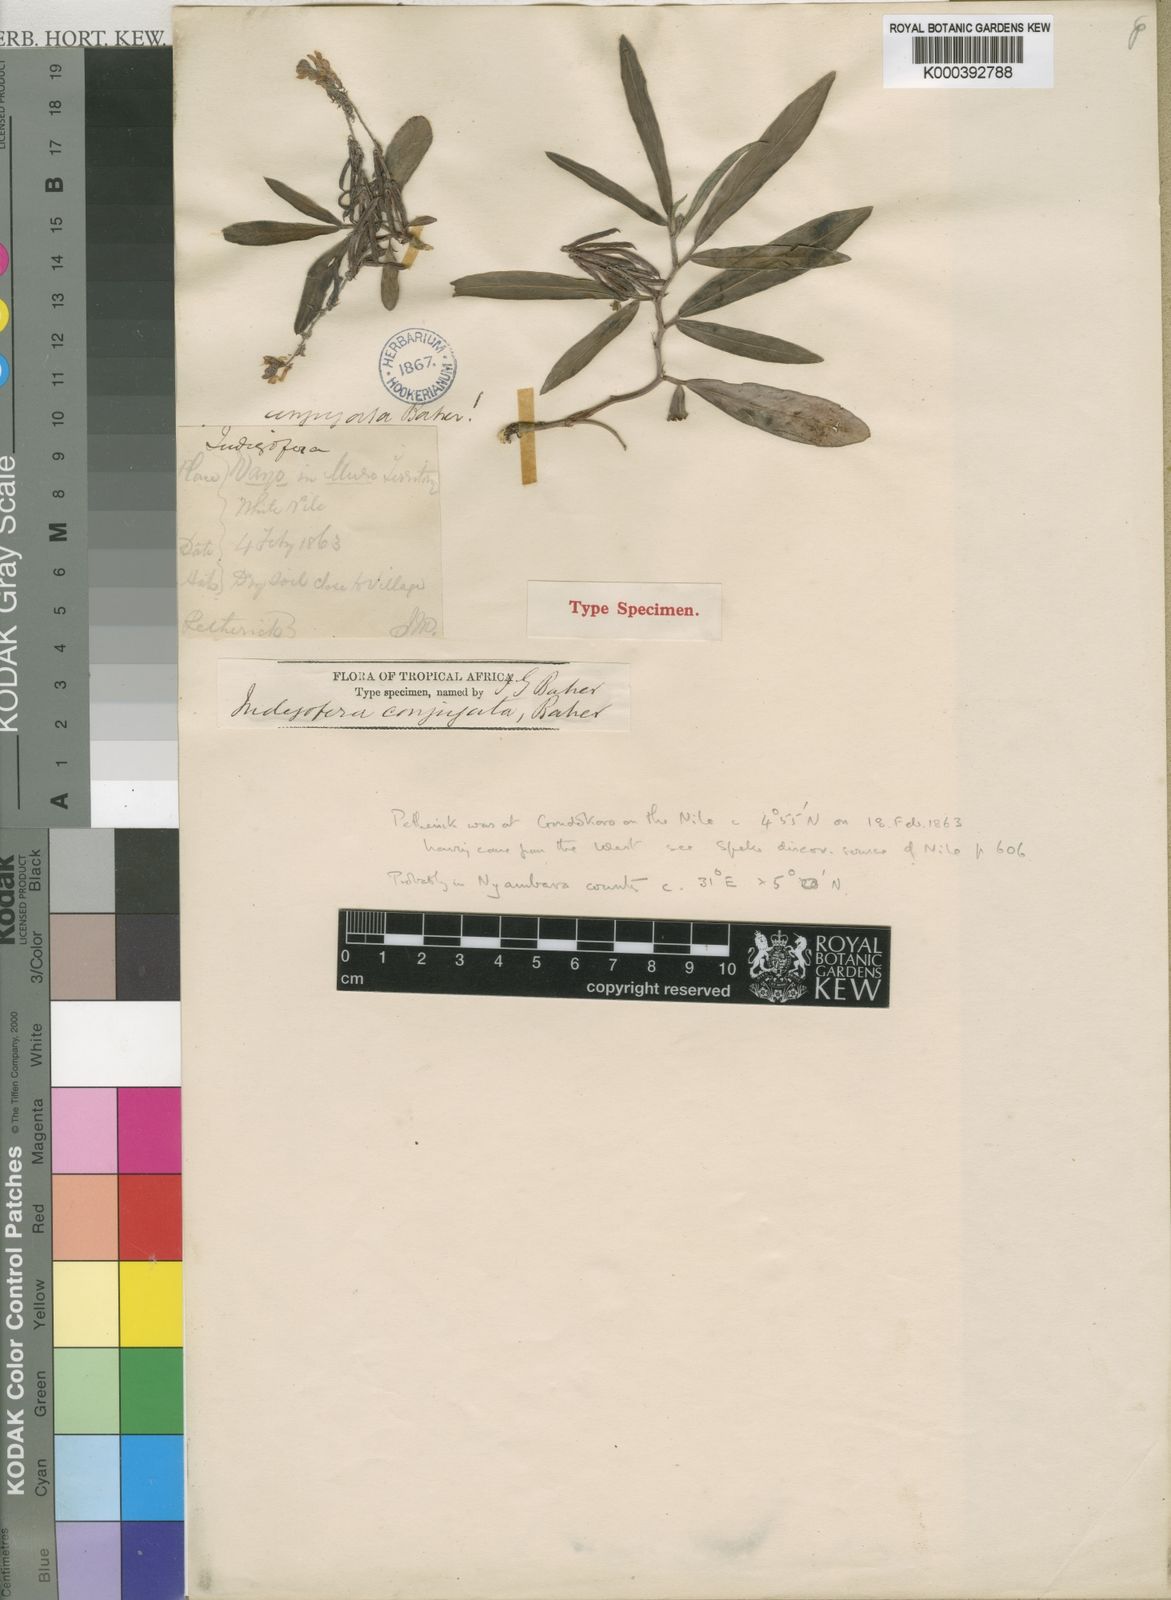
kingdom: Plantae
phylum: Tracheophyta
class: Magnoliopsida
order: Fabales
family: Fabaceae
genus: Indigofera
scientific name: Indigofera conjugata
